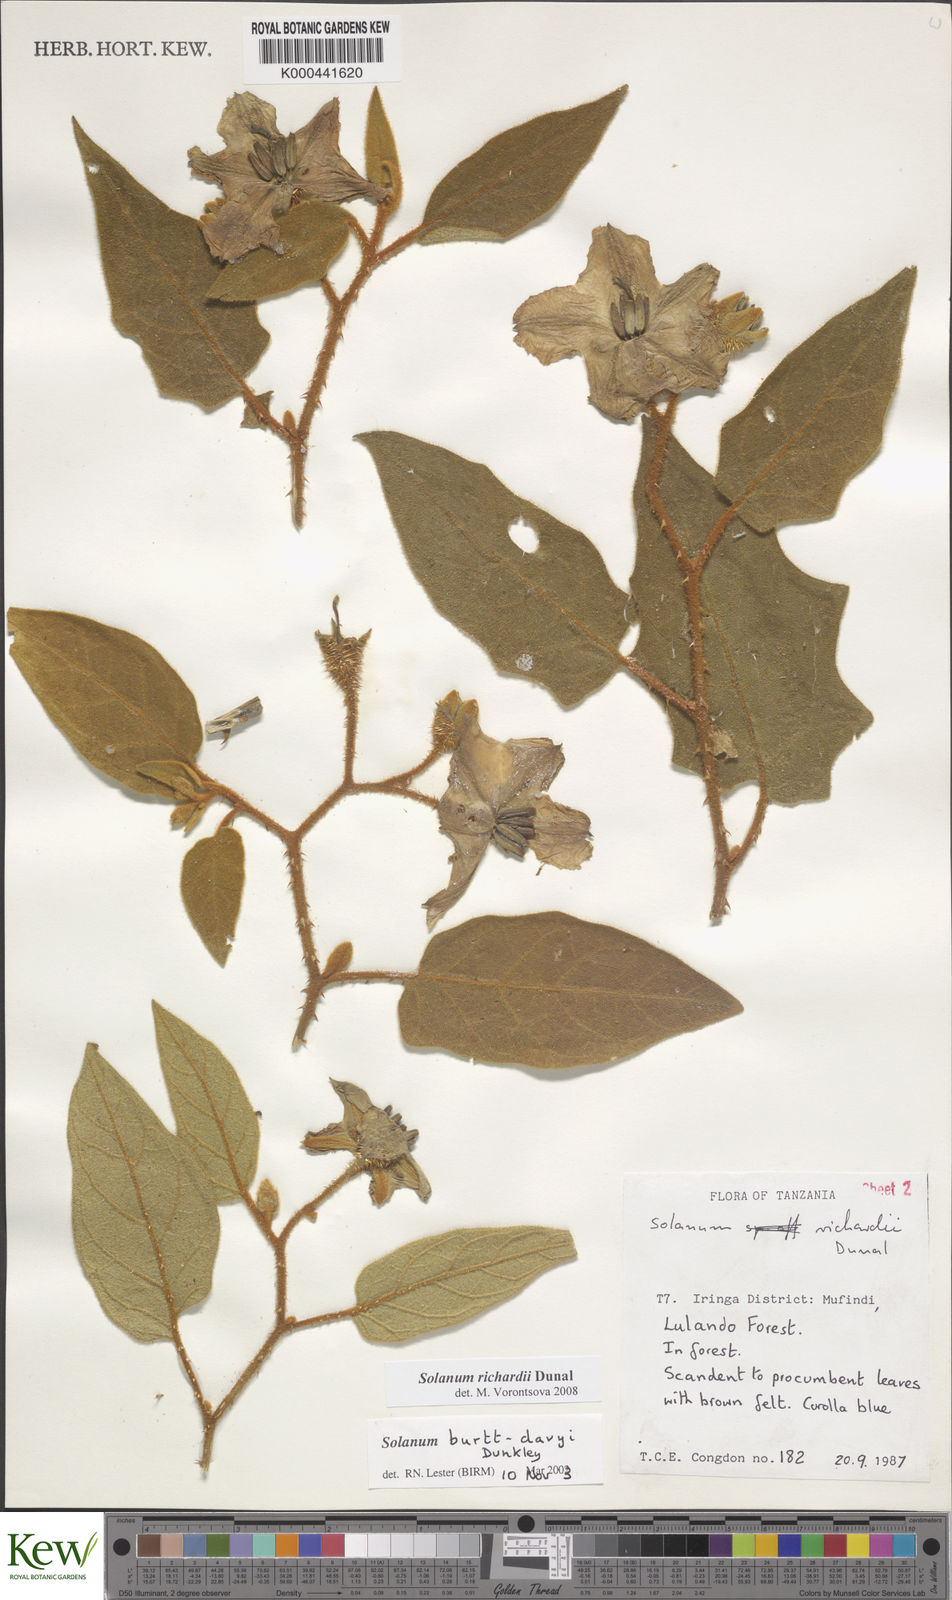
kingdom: Plantae
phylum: Tracheophyta
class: Magnoliopsida
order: Solanales
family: Solanaceae
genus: Solanum
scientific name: Solanum richardii
